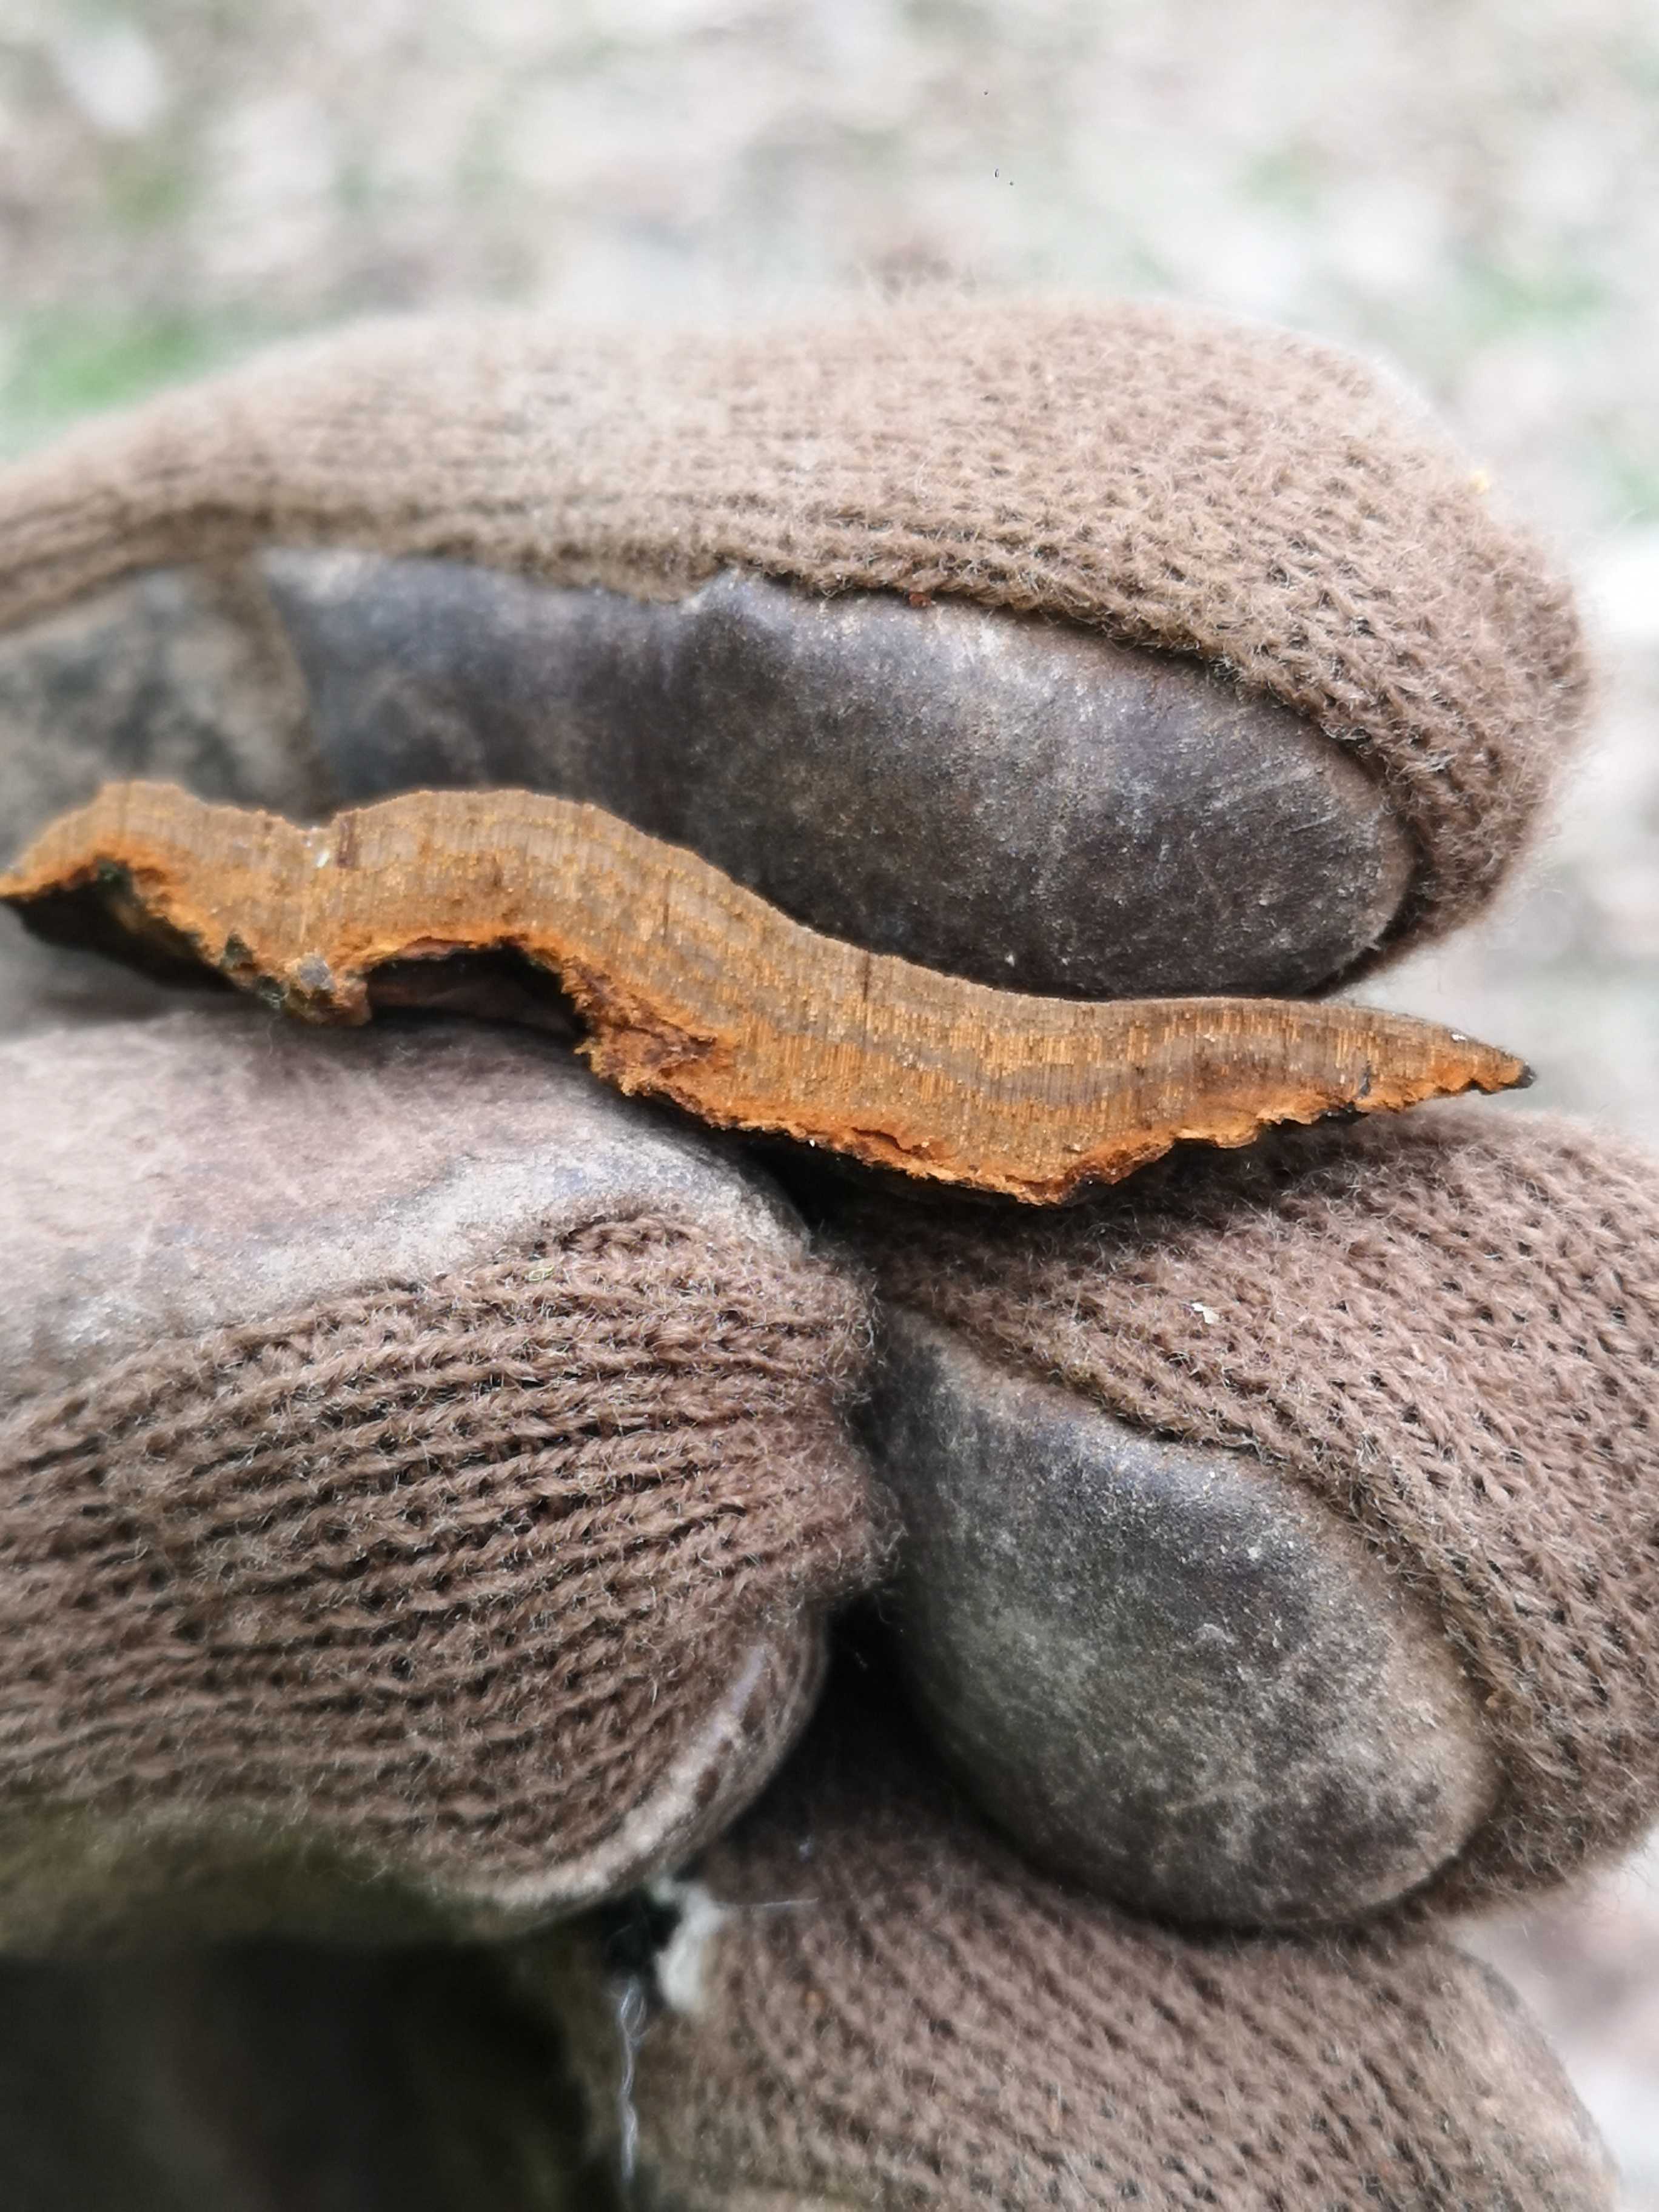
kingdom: Fungi
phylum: Basidiomycota
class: Agaricomycetes
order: Hymenochaetales
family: Hymenochaetaceae
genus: Phellinopsis
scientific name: Phellinopsis conchata
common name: pile-ildporesvamp
